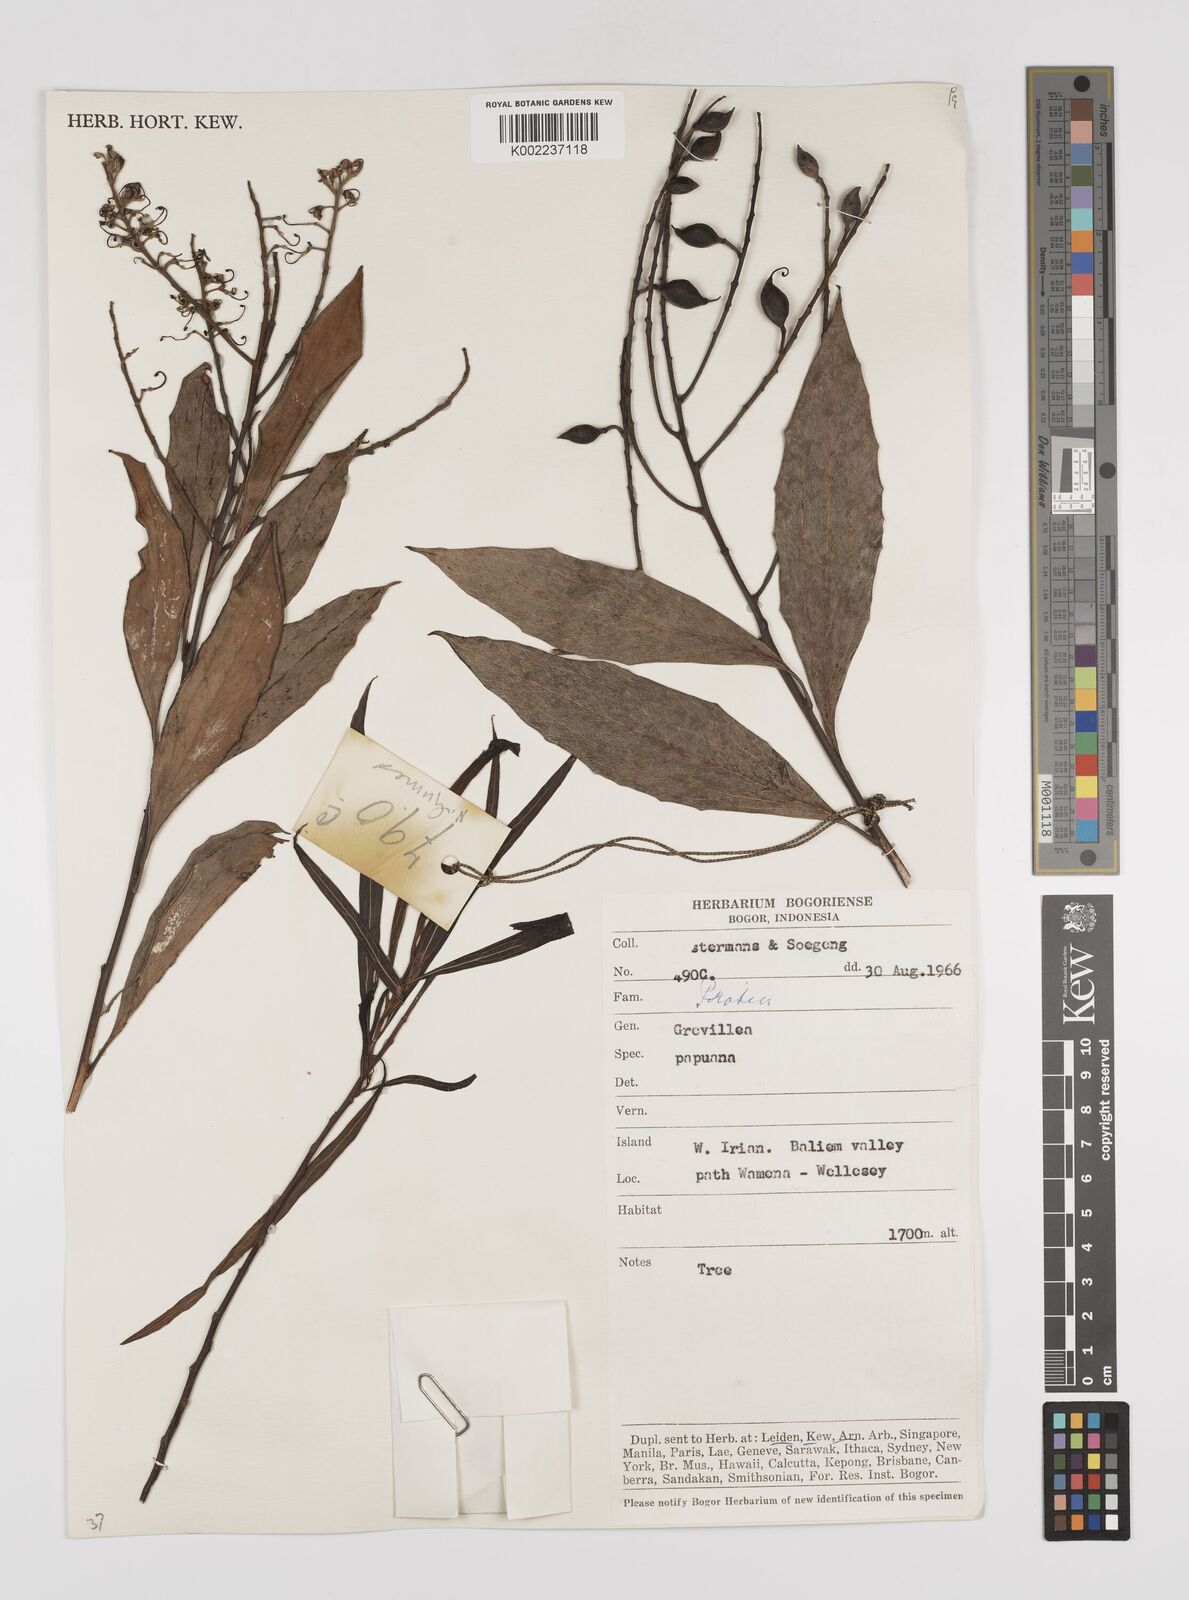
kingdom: Plantae
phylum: Tracheophyta
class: Magnoliopsida
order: Proteales
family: Proteaceae
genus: Grevillea
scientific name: Grevillea papuana
